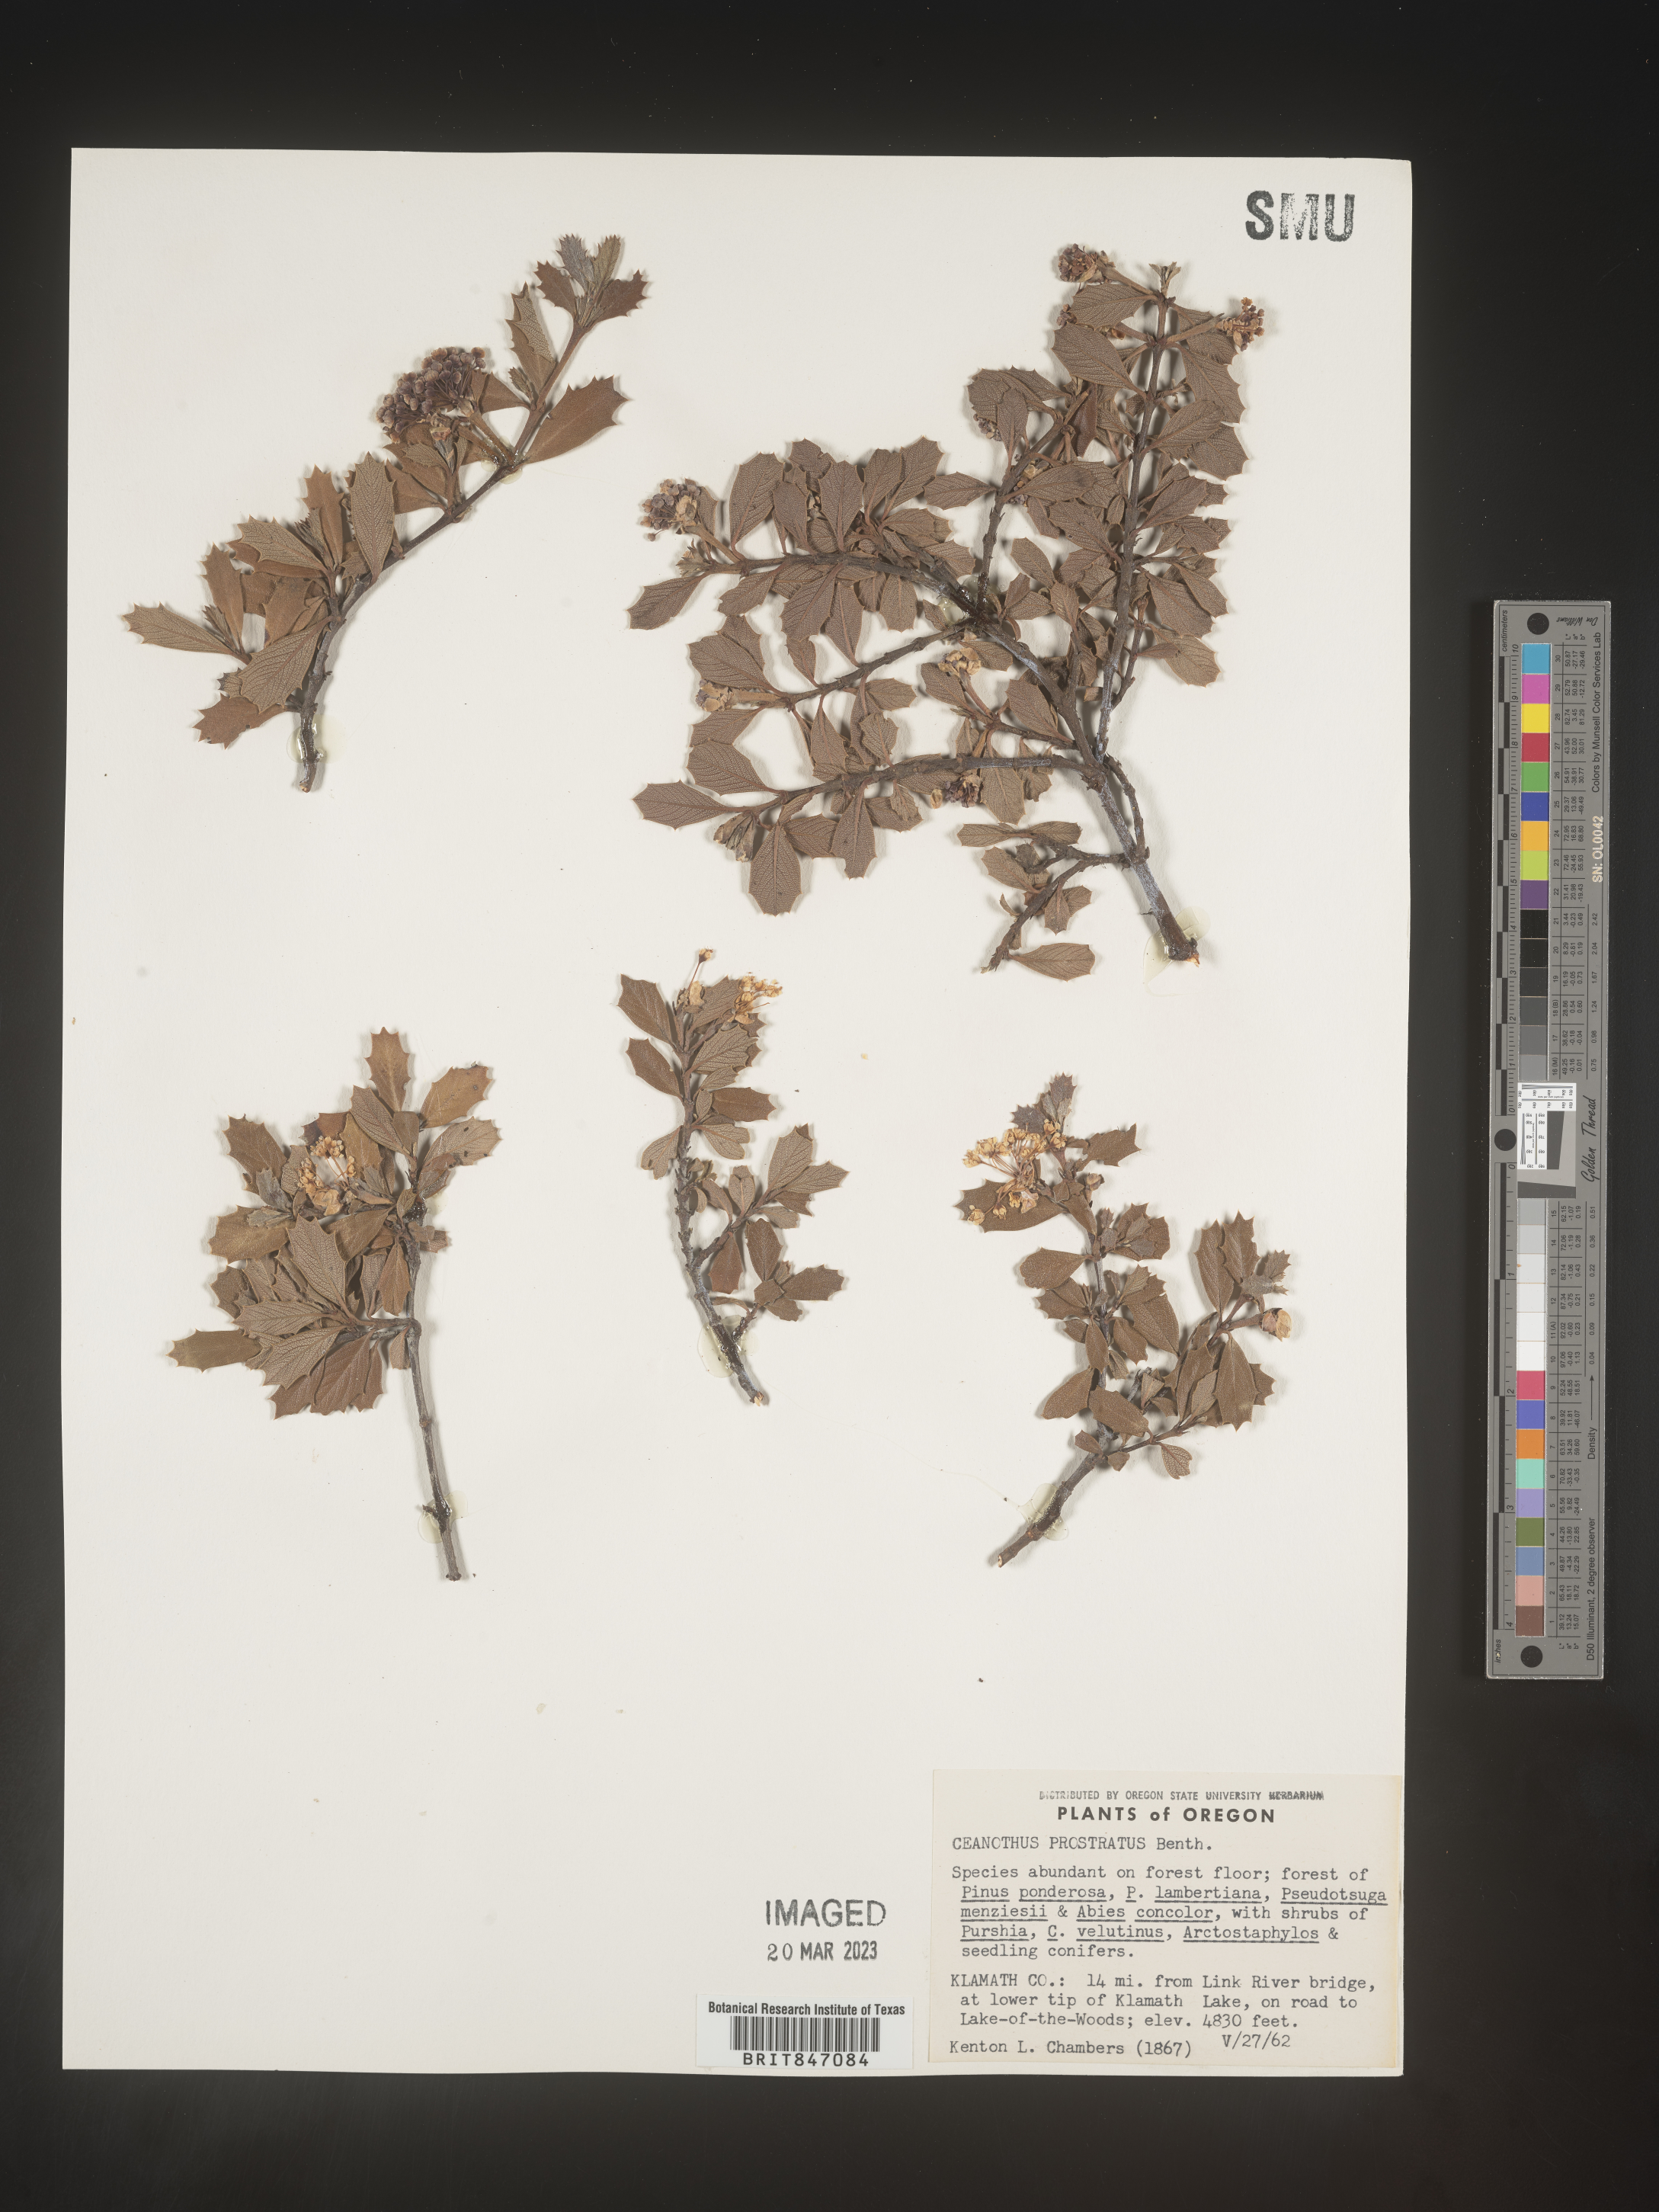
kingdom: Plantae
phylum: Tracheophyta
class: Magnoliopsida
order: Rosales
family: Rhamnaceae
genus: Ceanothus
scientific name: Ceanothus
